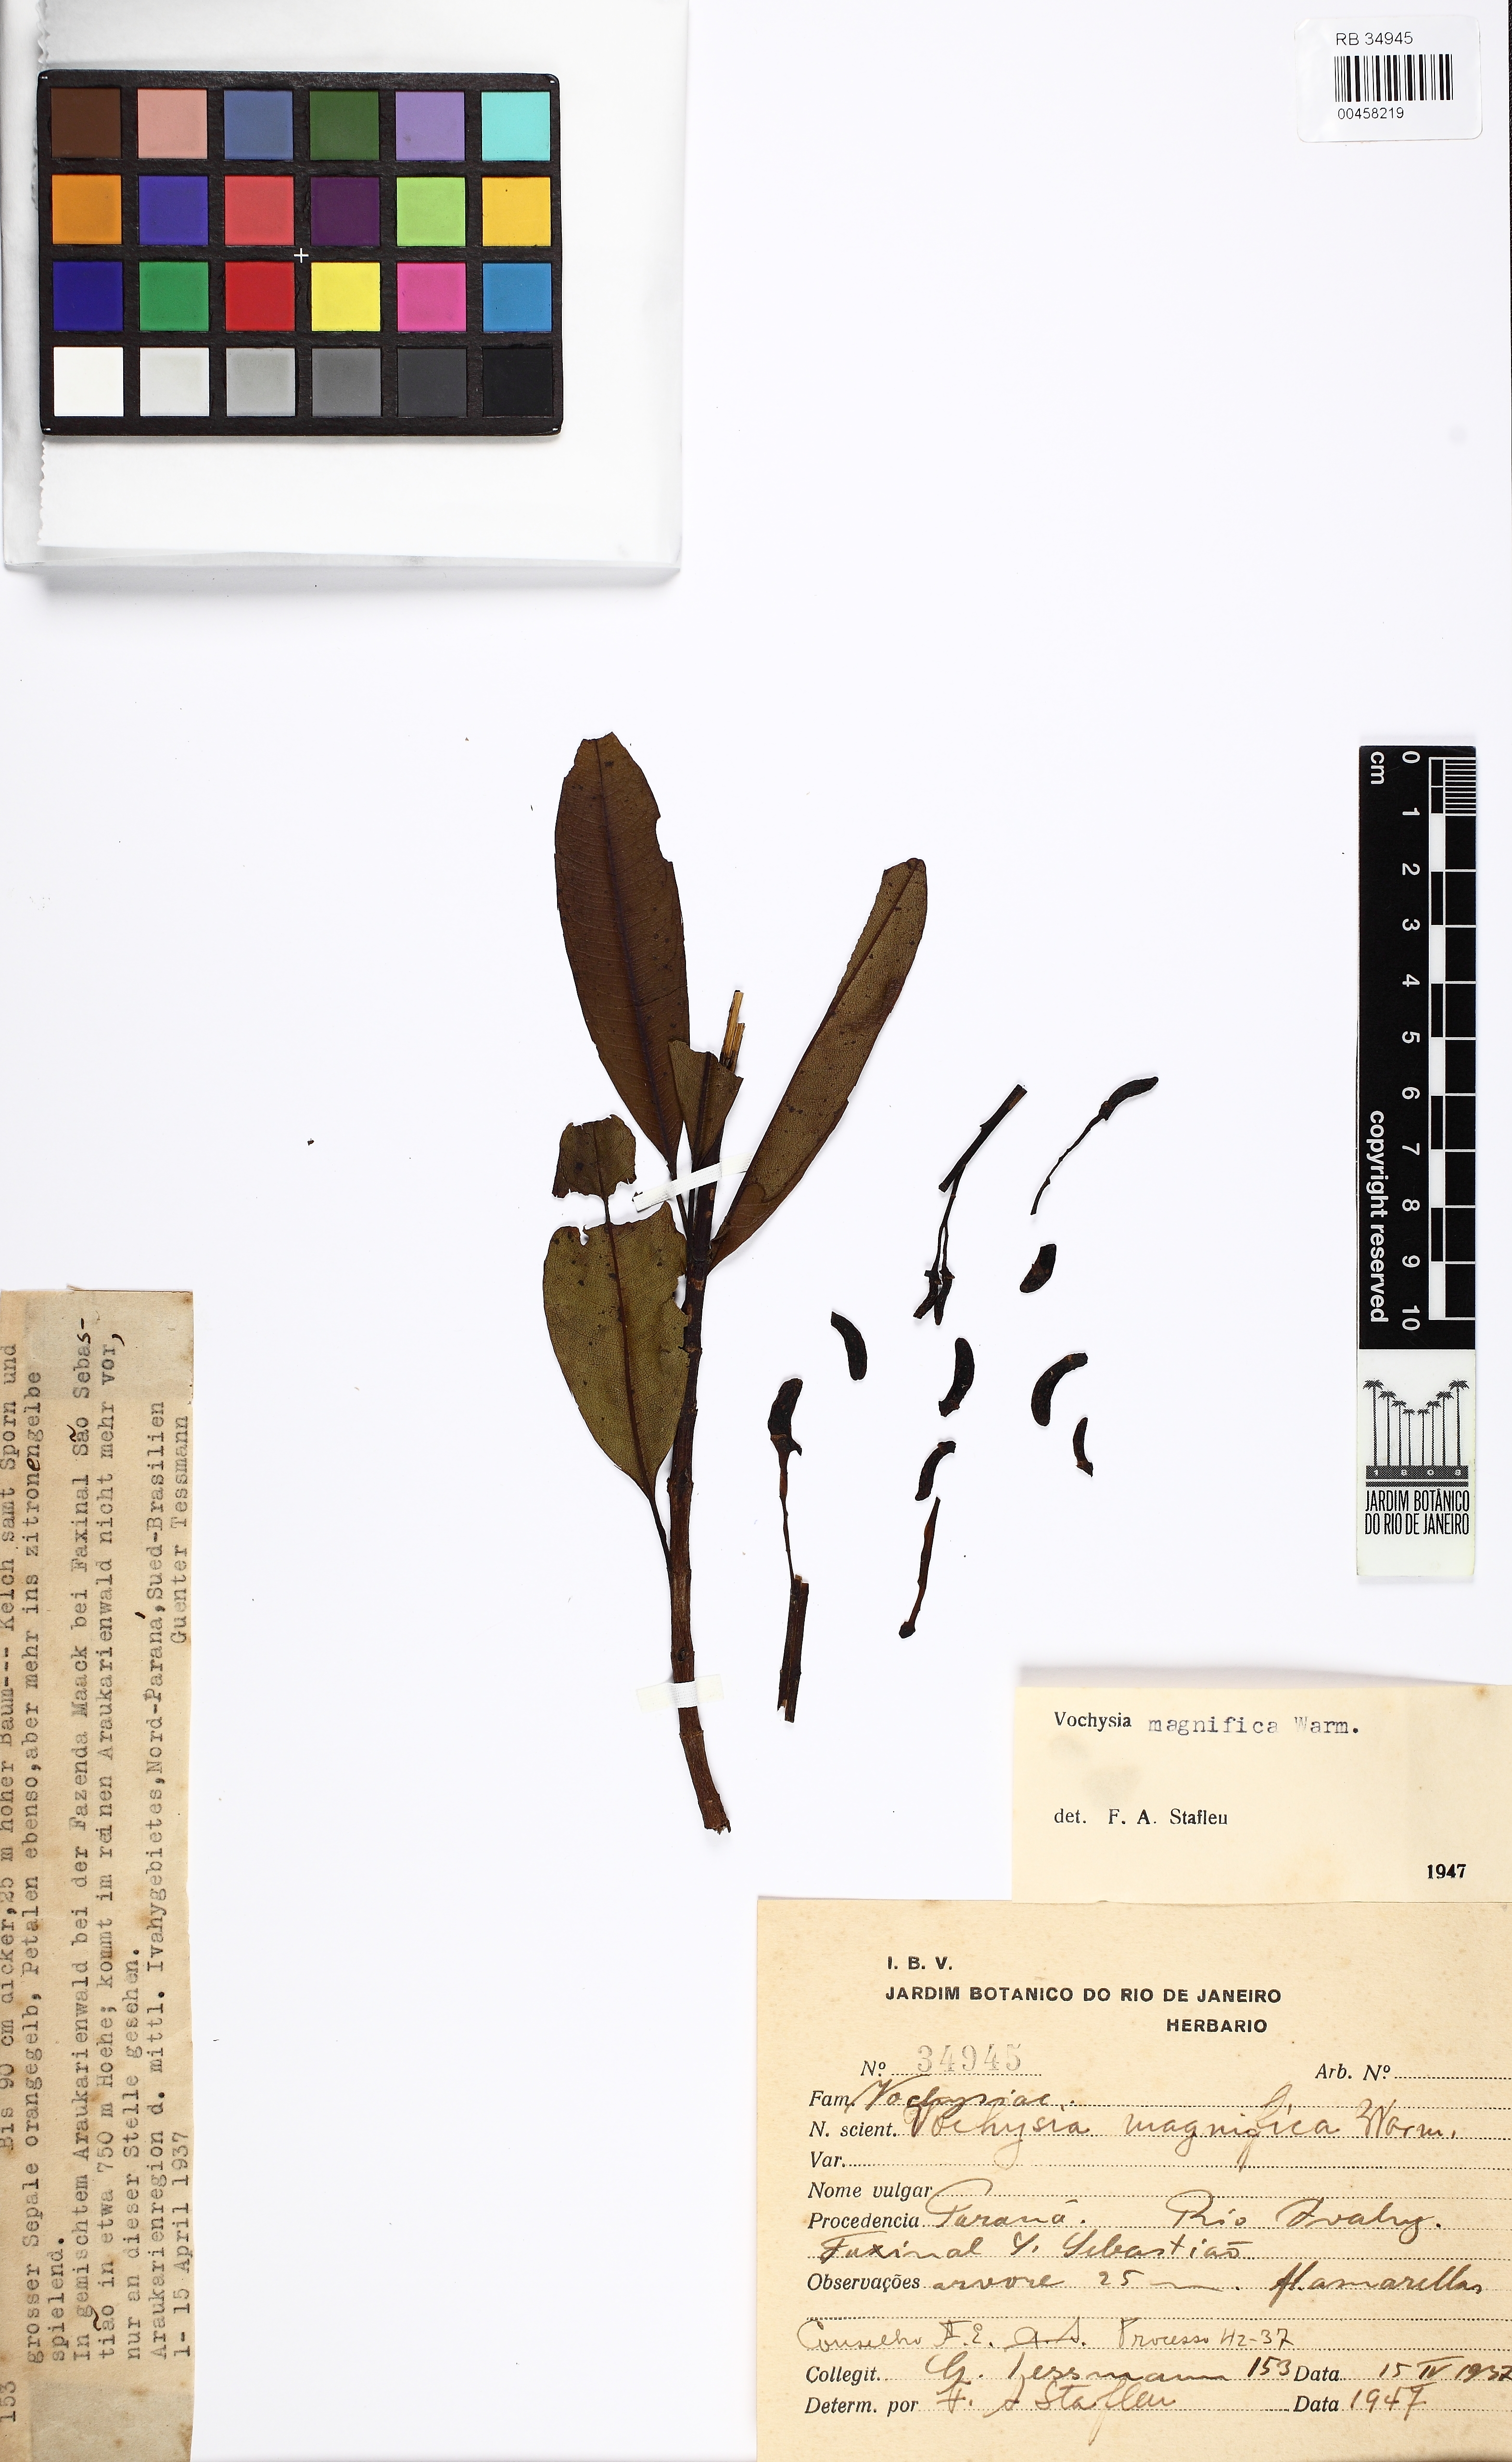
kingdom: Plantae
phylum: Tracheophyta
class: Magnoliopsida
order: Myrtales
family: Vochysiaceae
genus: Vochysia
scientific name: Vochysia magnifica
